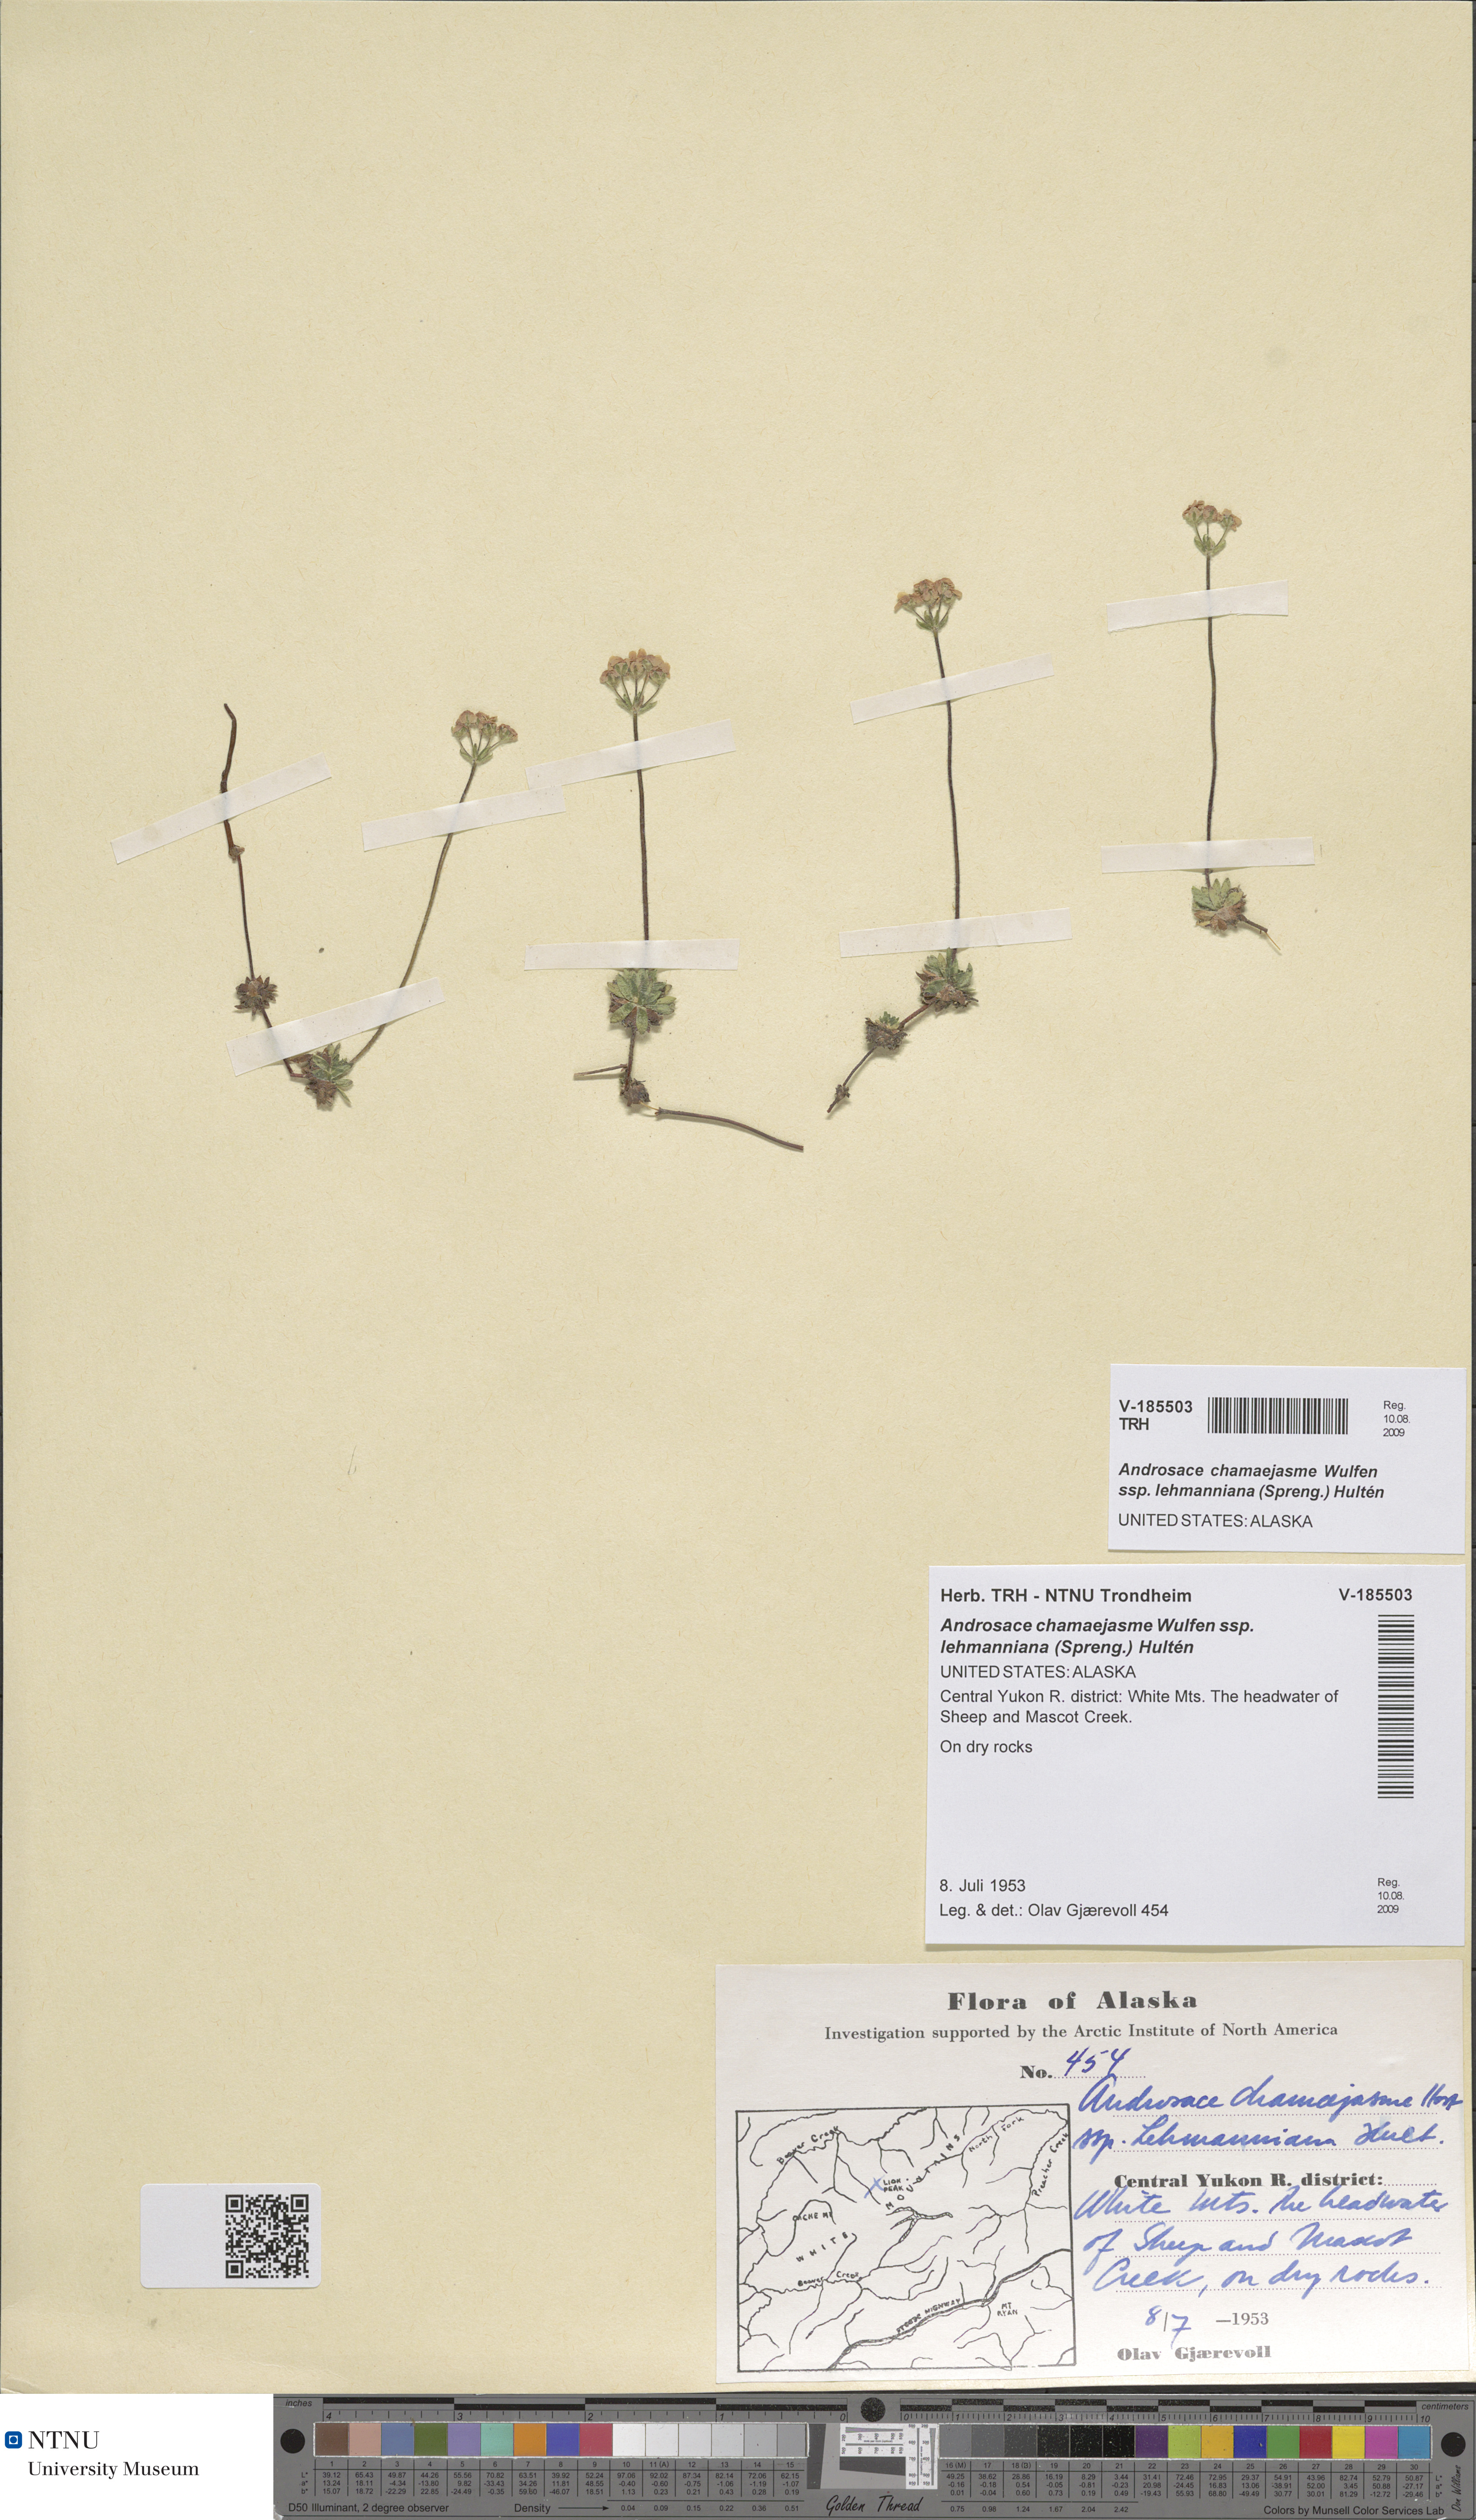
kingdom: Plantae
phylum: Tracheophyta
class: Magnoliopsida
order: Ericales
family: Primulaceae
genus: Androsace
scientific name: Androsace chamaejasme
